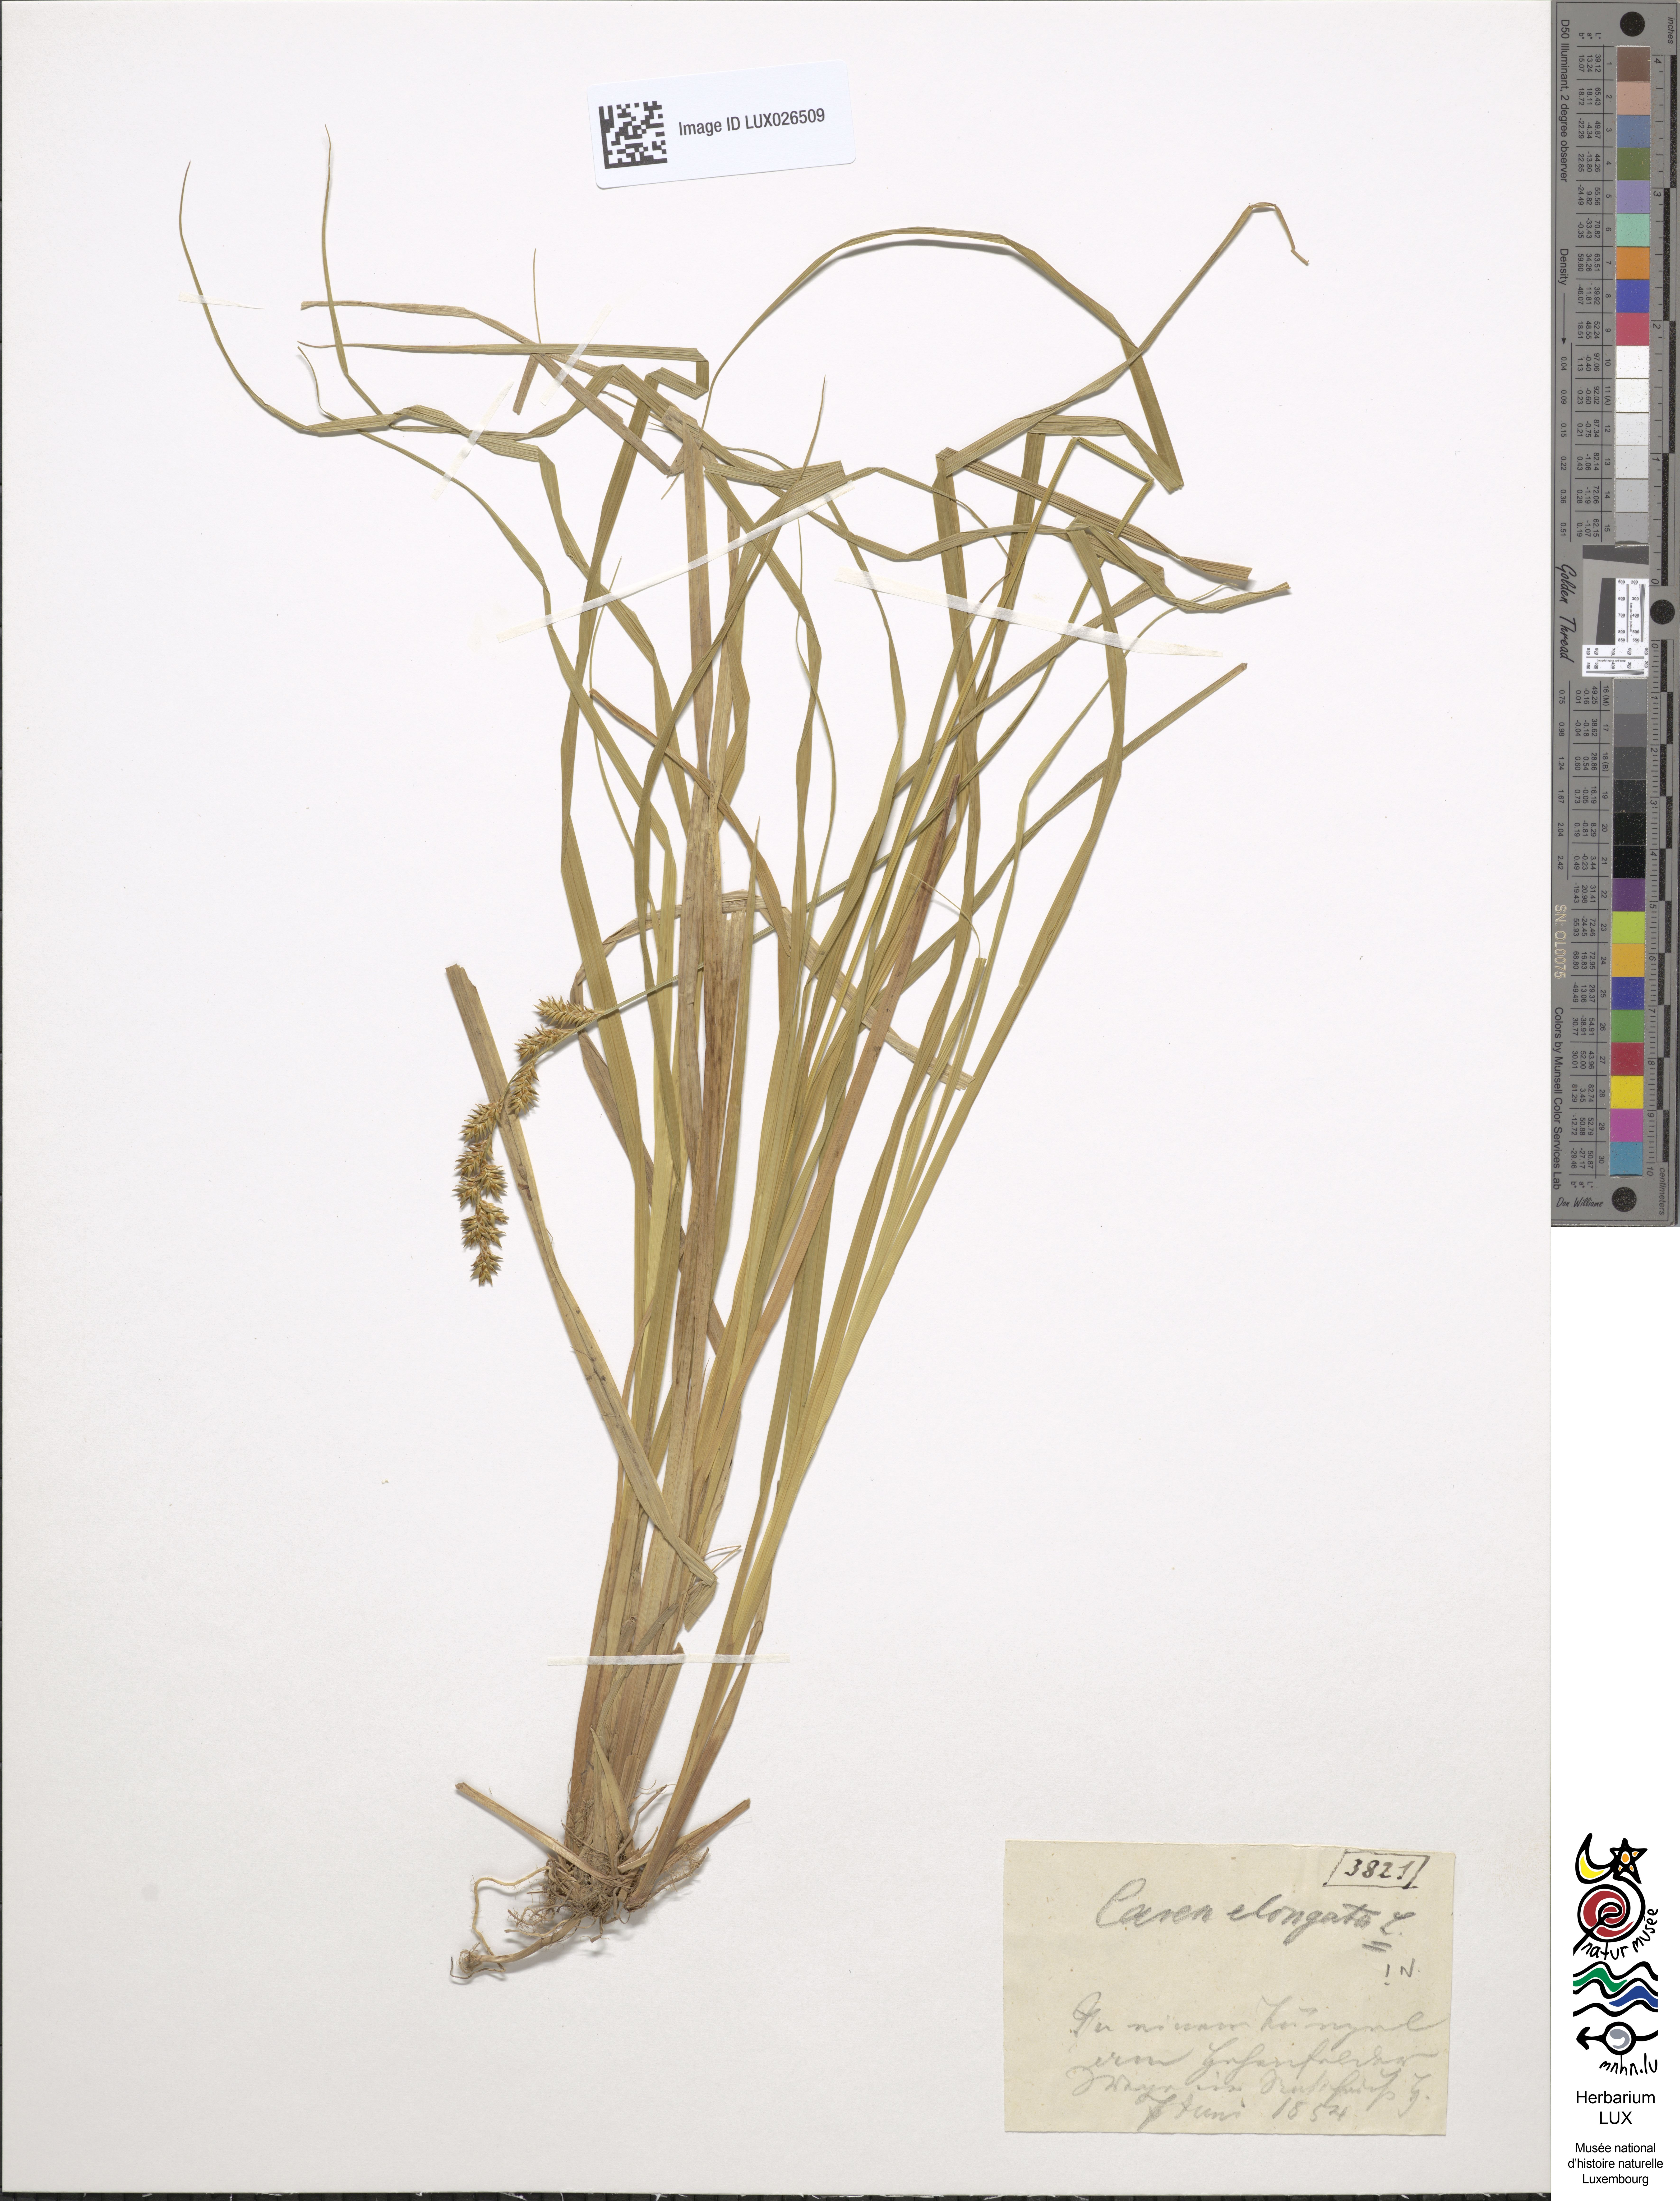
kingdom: Plantae
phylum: Tracheophyta
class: Liliopsida
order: Poales
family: Cyperaceae
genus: Carex
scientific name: Carex elongata
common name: Elongated sedge
